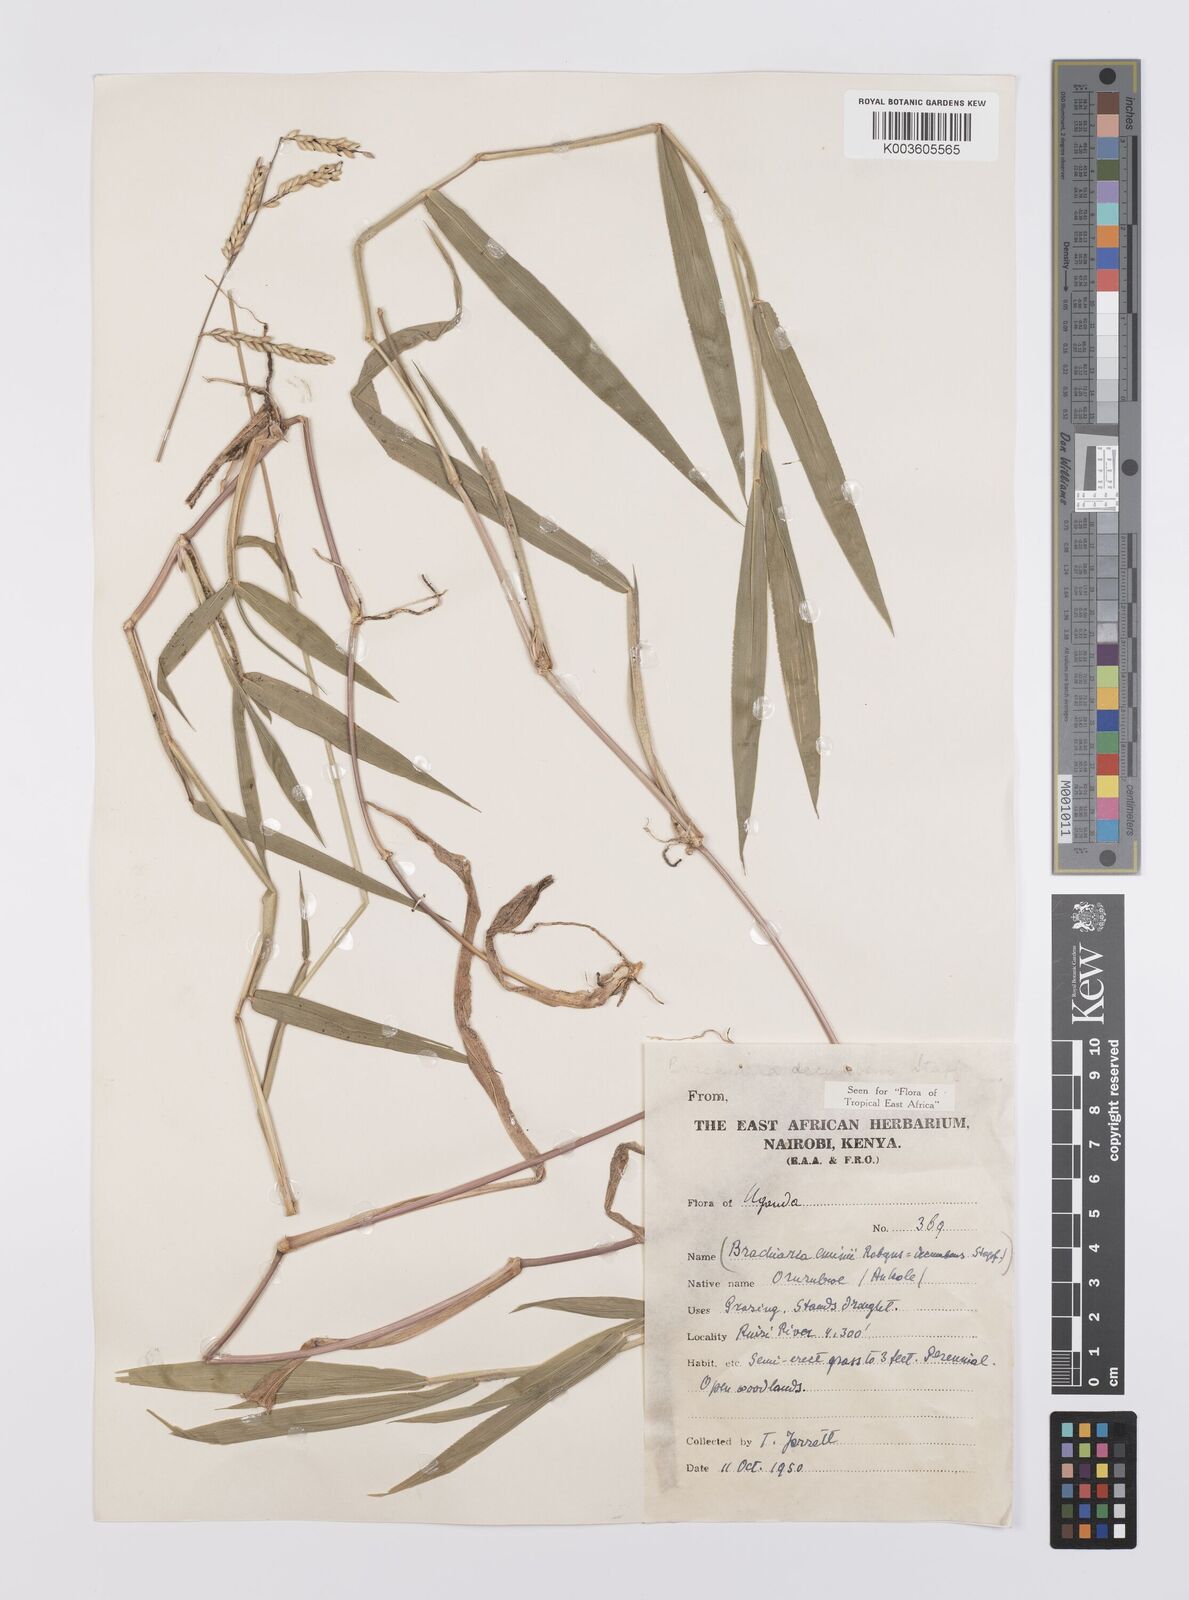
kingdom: Plantae
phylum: Tracheophyta
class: Liliopsida
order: Poales
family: Poaceae
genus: Urochloa
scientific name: Urochloa eminii
